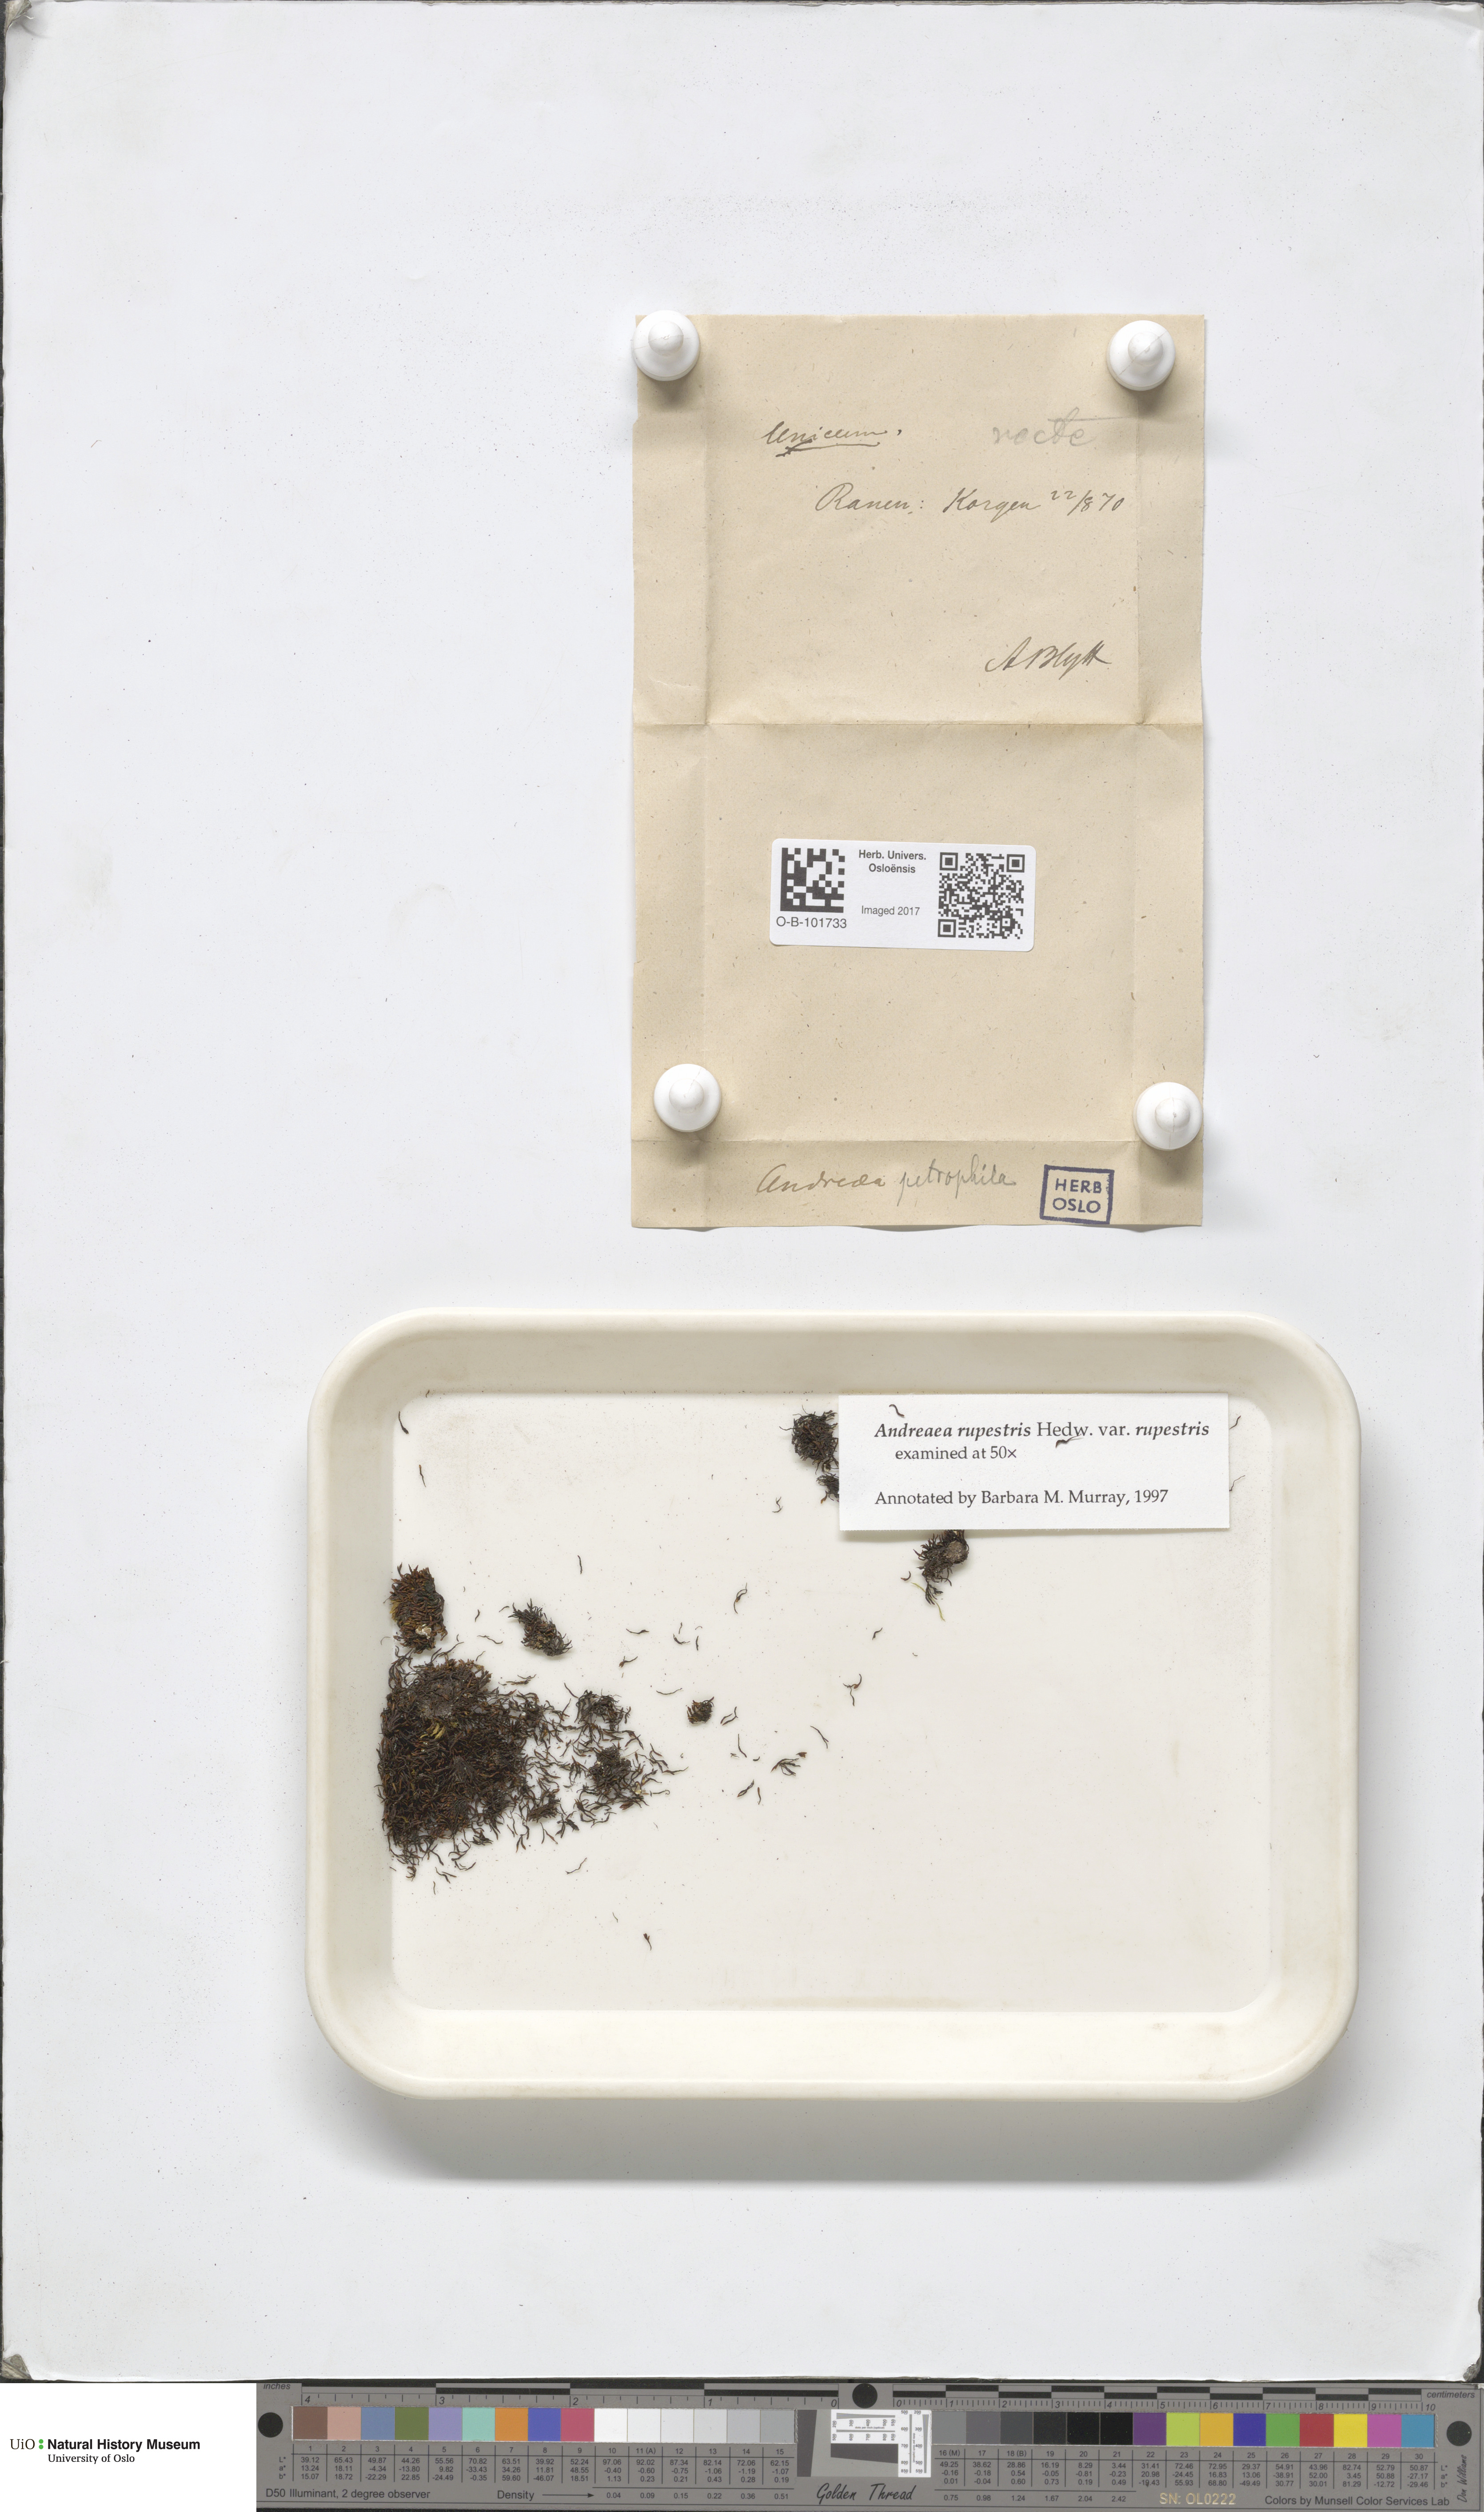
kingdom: Plantae
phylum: Bryophyta
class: Andreaeopsida
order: Andreaeales
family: Andreaeaceae
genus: Andreaea
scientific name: Andreaea rupestris
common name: Black rock moss
